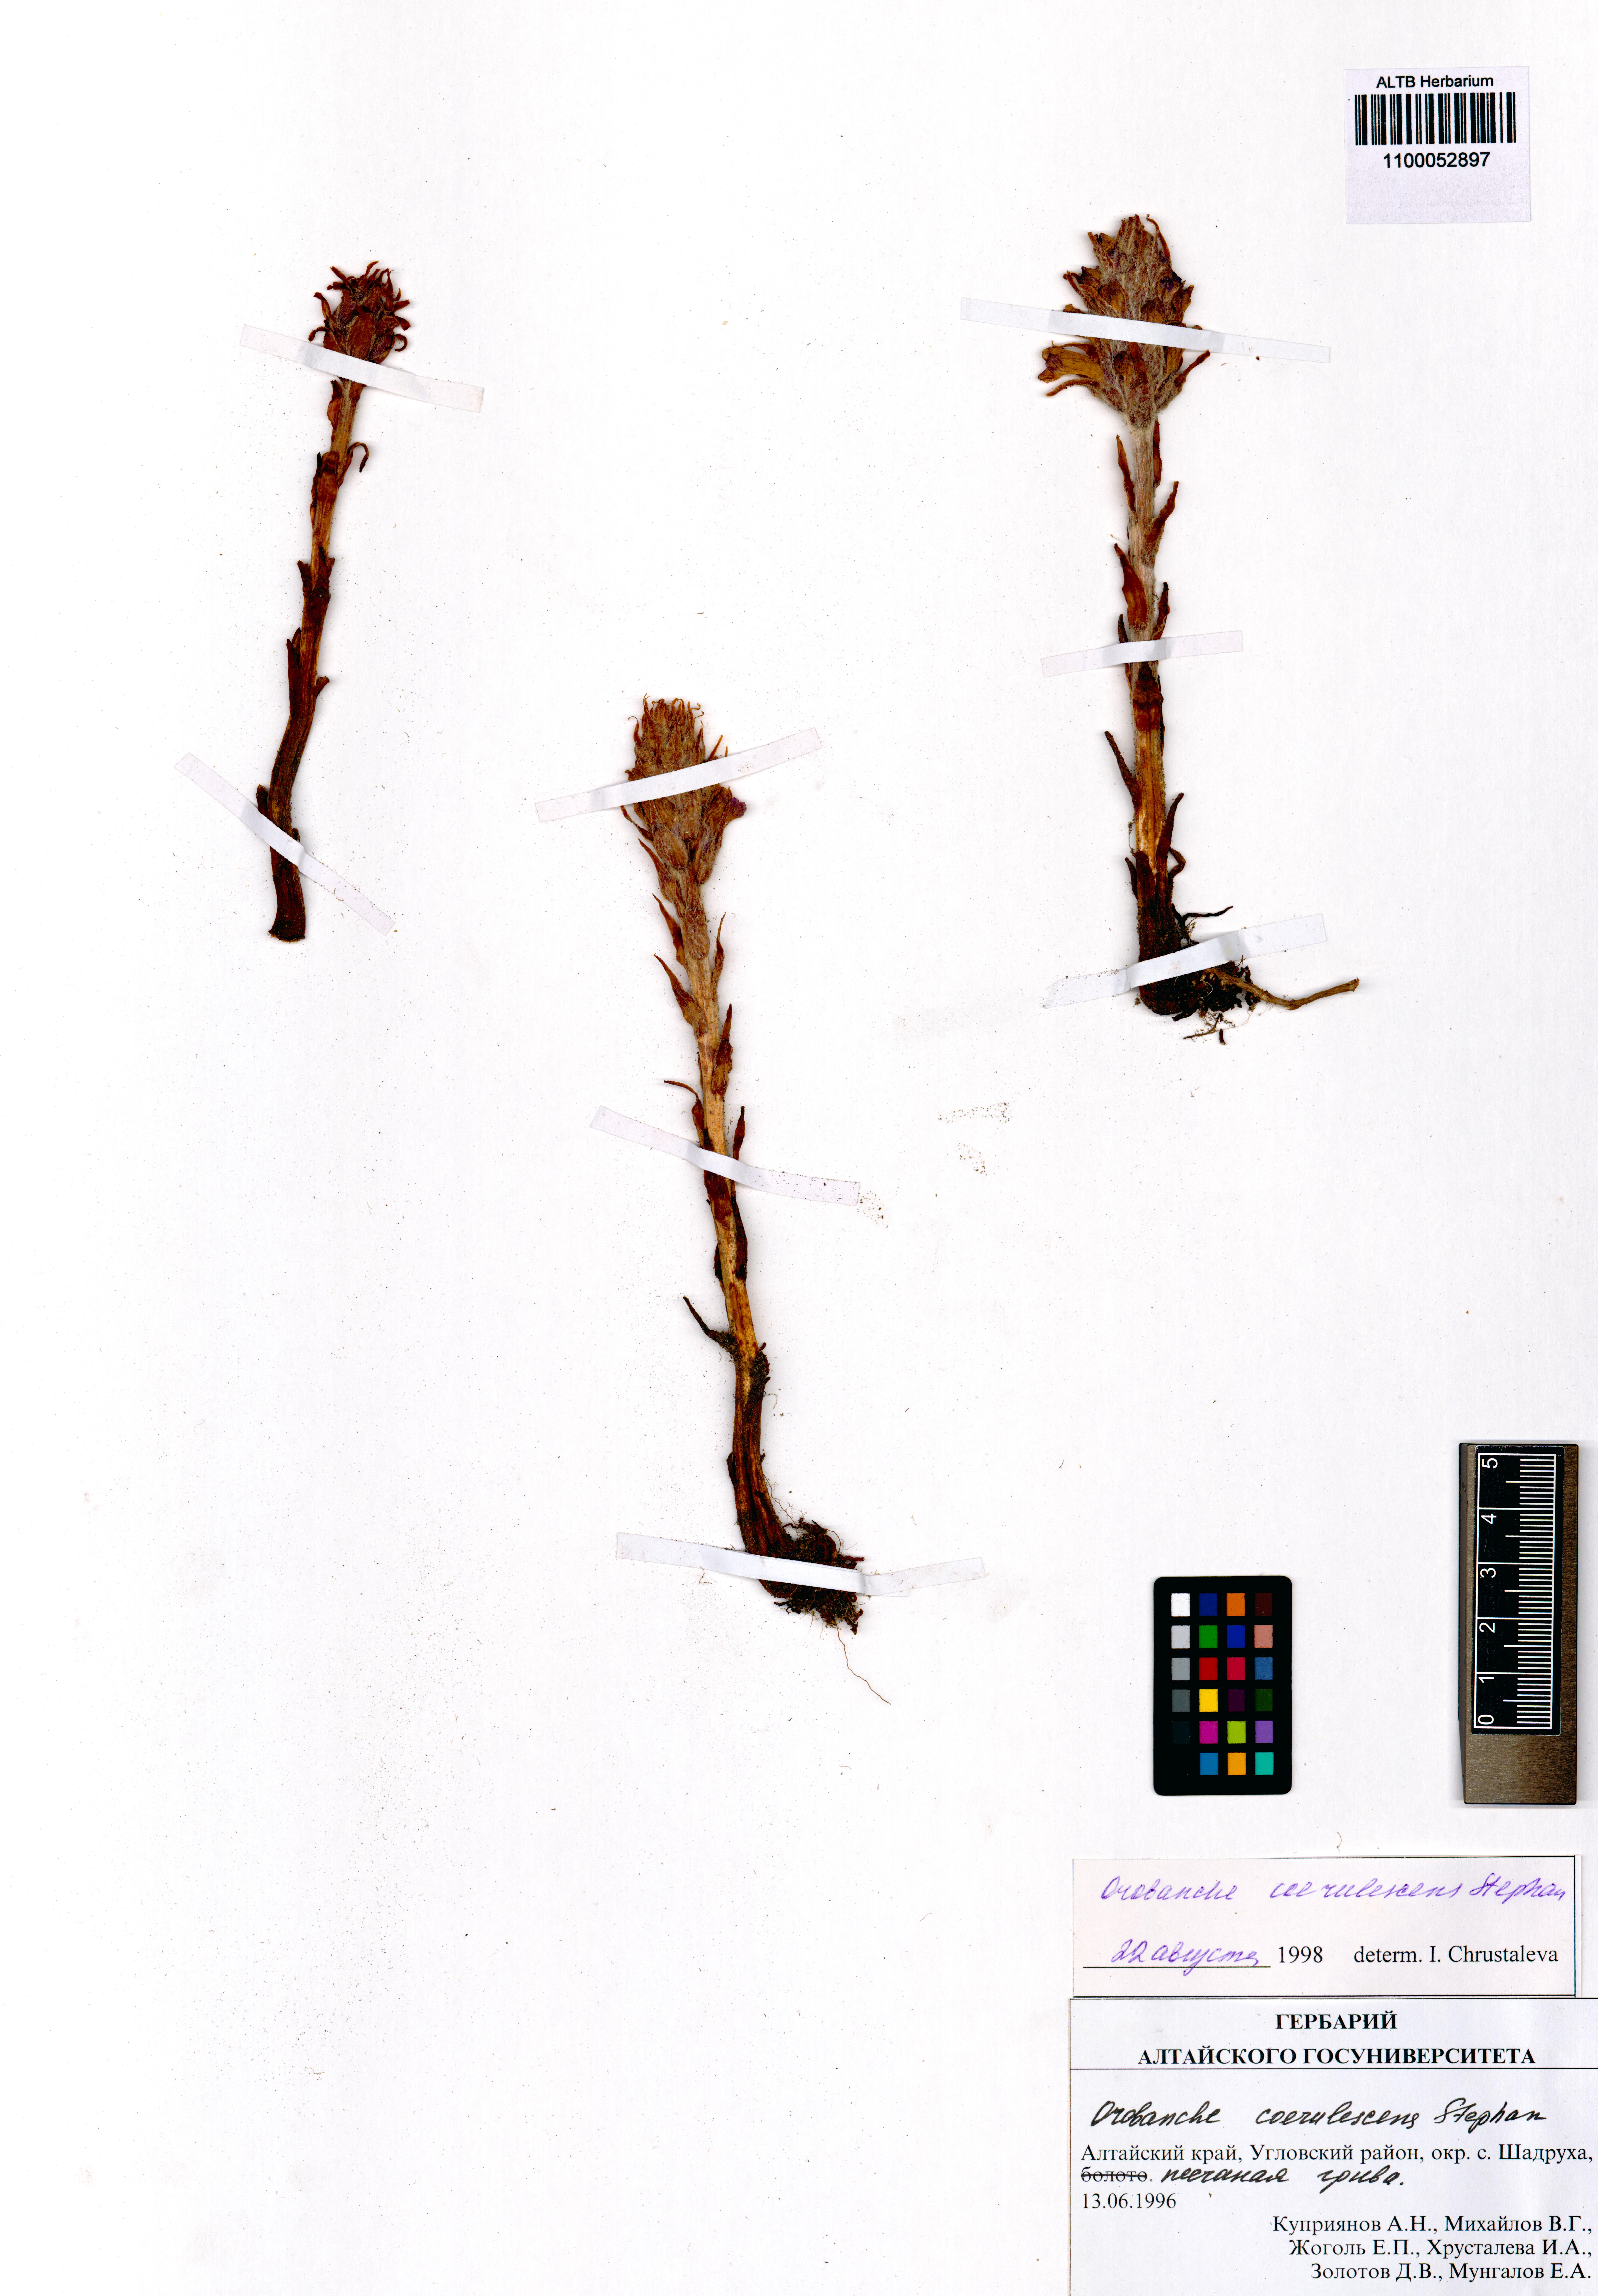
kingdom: Plantae
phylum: Tracheophyta
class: Magnoliopsida
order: Lamiales
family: Orobanchaceae
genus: Orobanche
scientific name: Orobanche coerulescens
